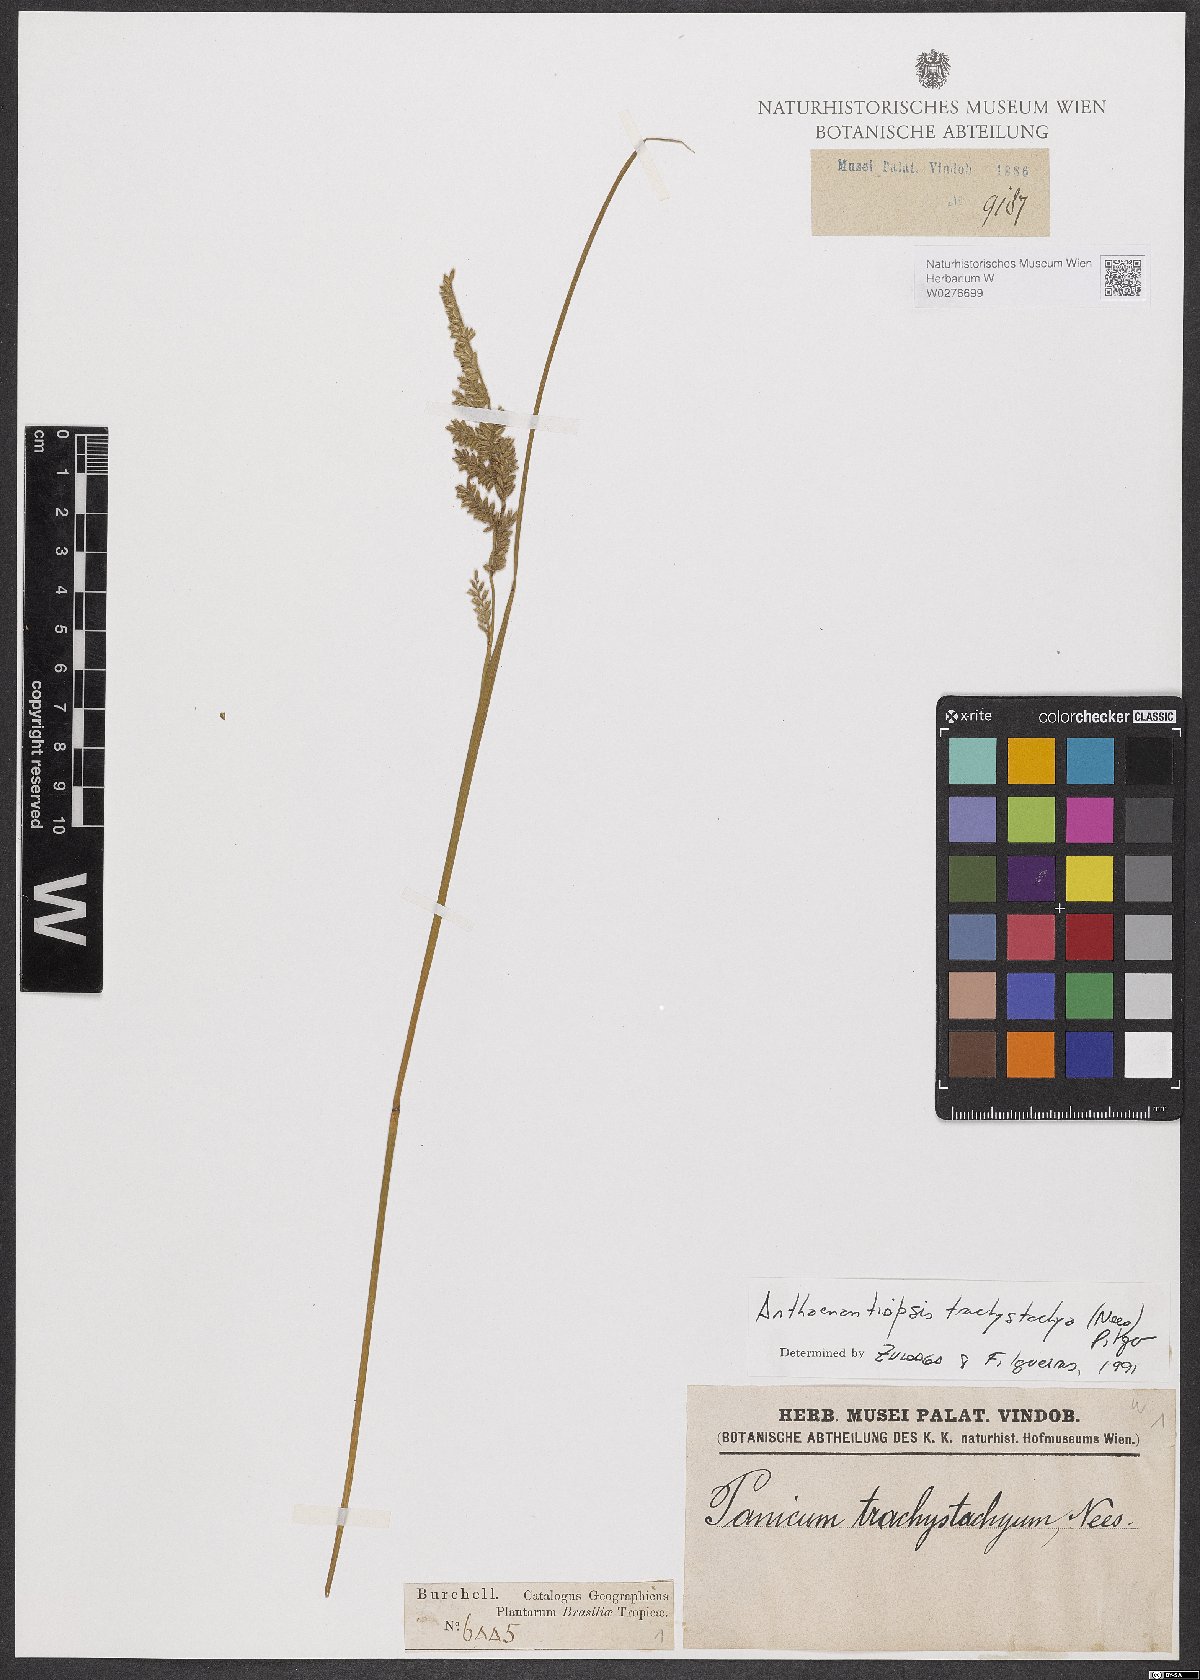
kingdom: Plantae
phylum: Tracheophyta
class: Liliopsida
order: Poales
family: Poaceae
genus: Anthaenantiopsis
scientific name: Anthaenantiopsis trachystachya
